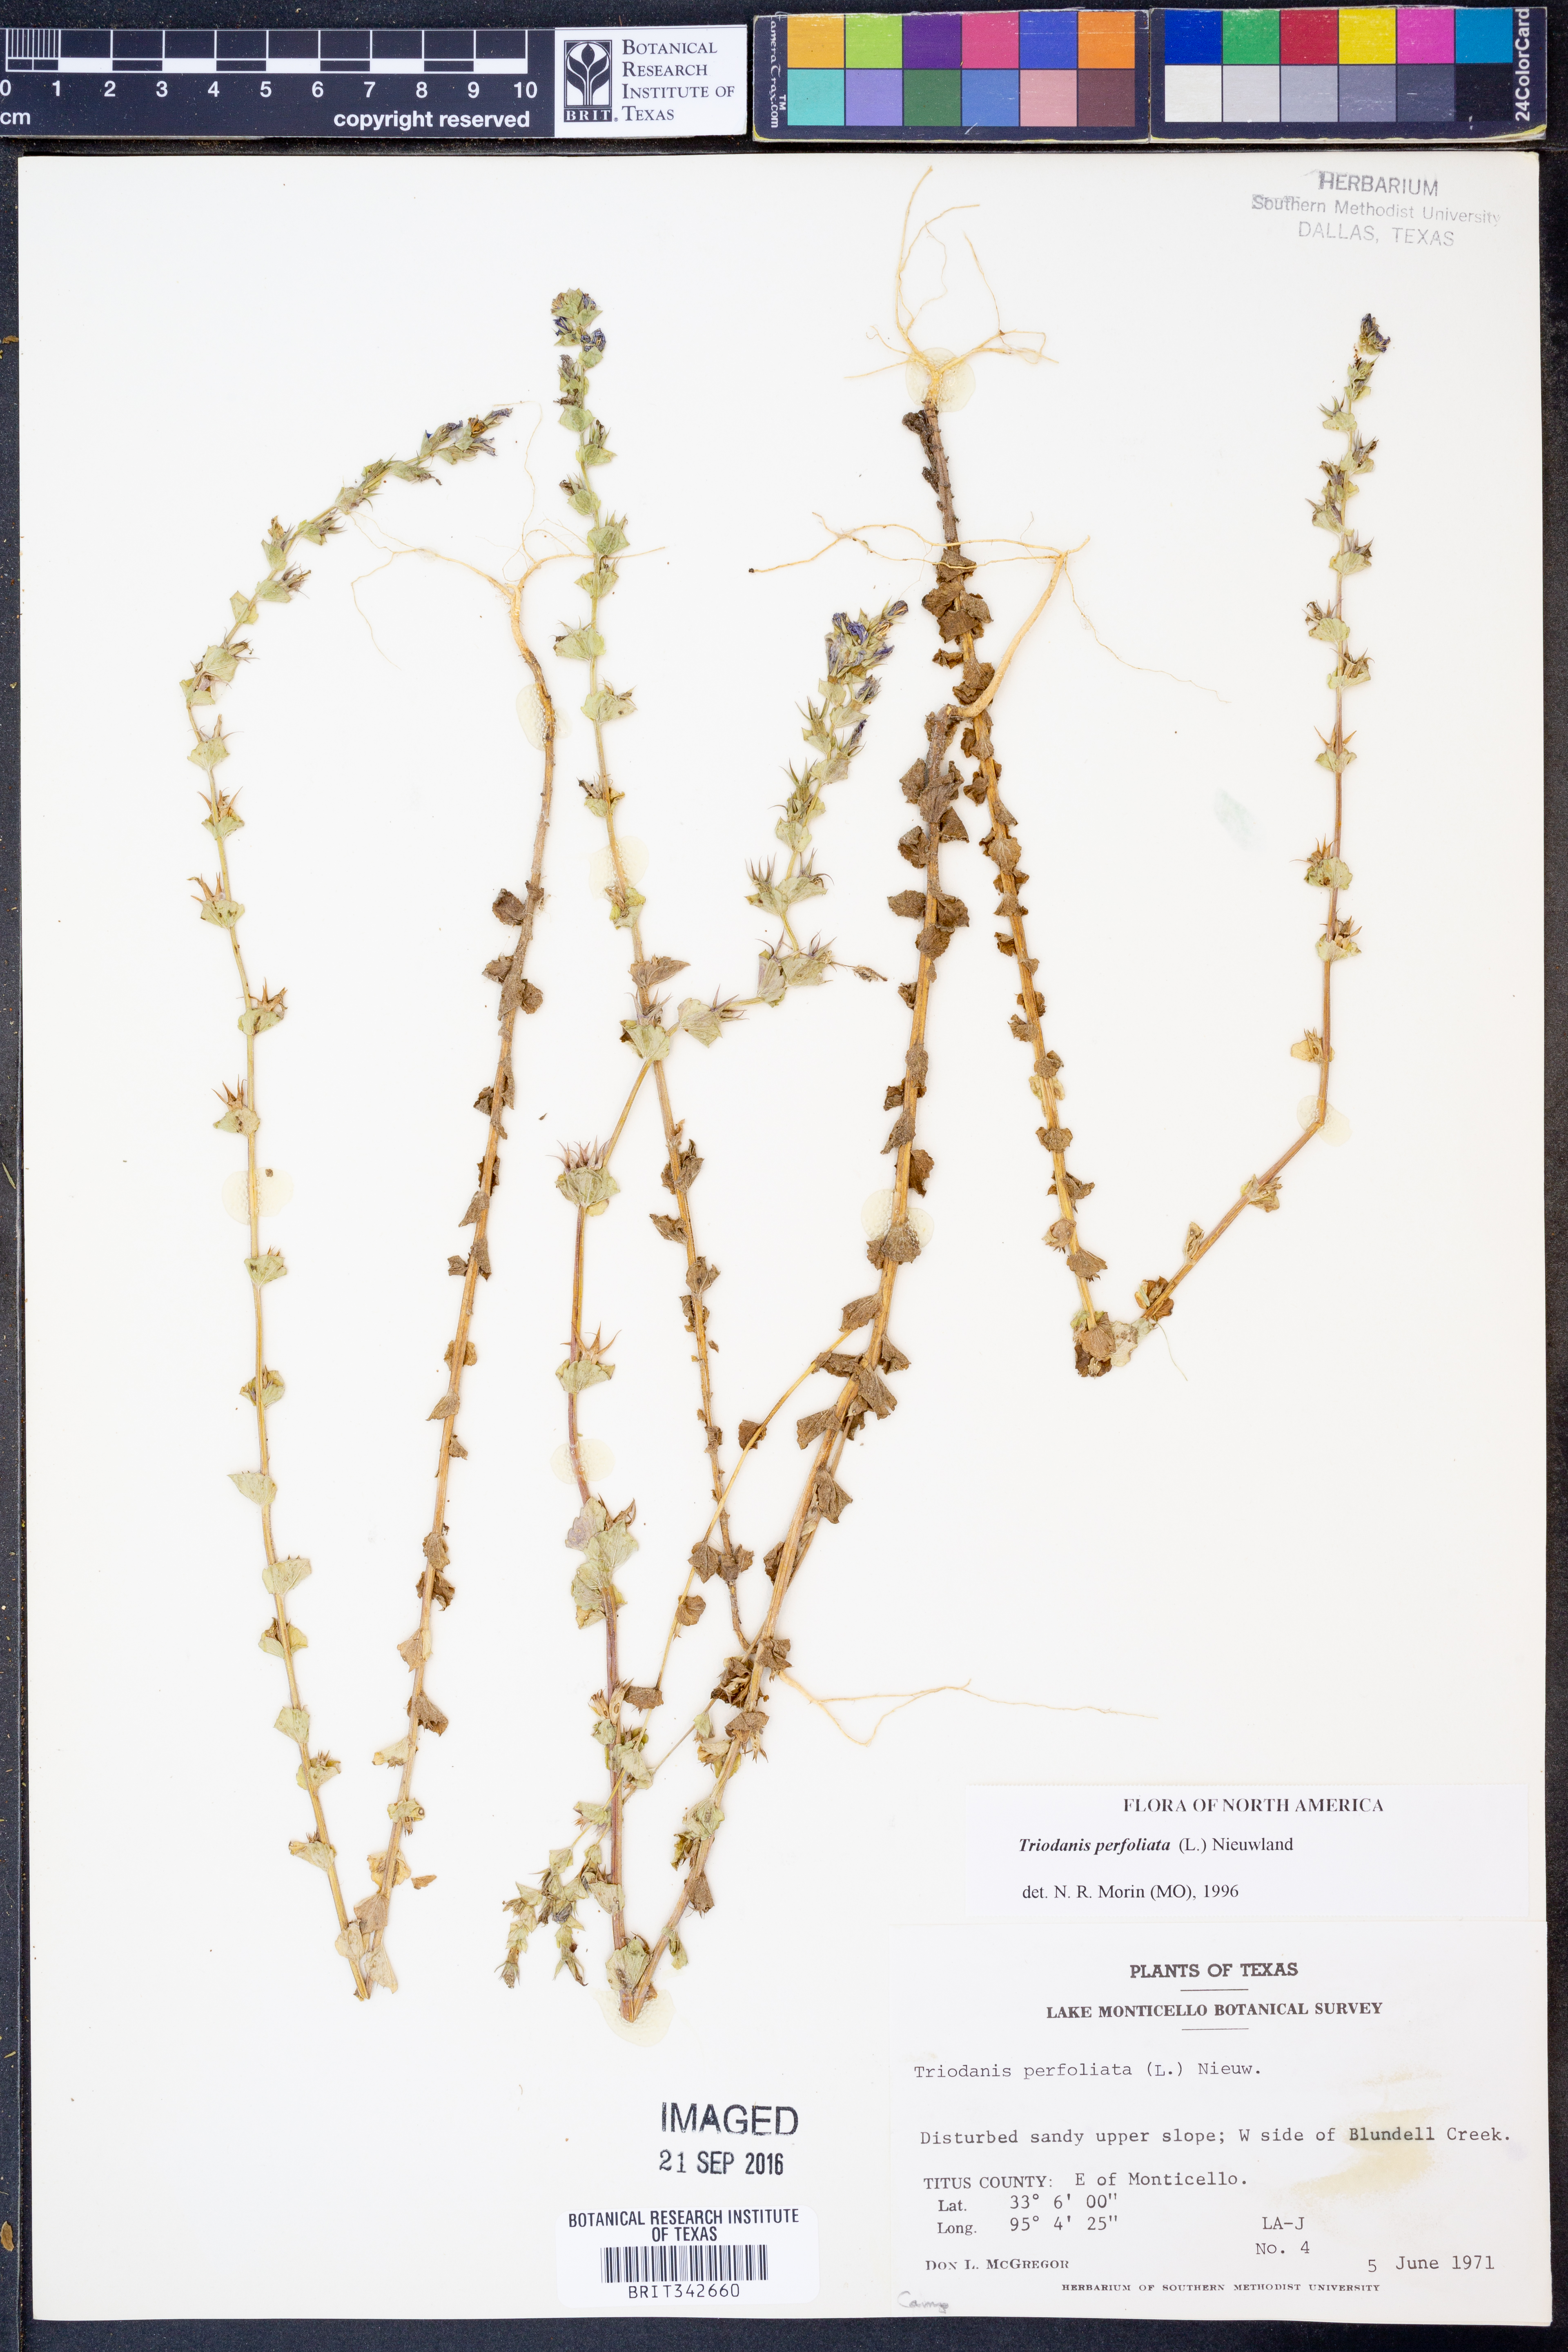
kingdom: Plantae
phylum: Tracheophyta
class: Magnoliopsida
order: Asterales
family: Campanulaceae
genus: Triodanis
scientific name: Triodanis perfoliata
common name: Clasping venus' looking-glass
